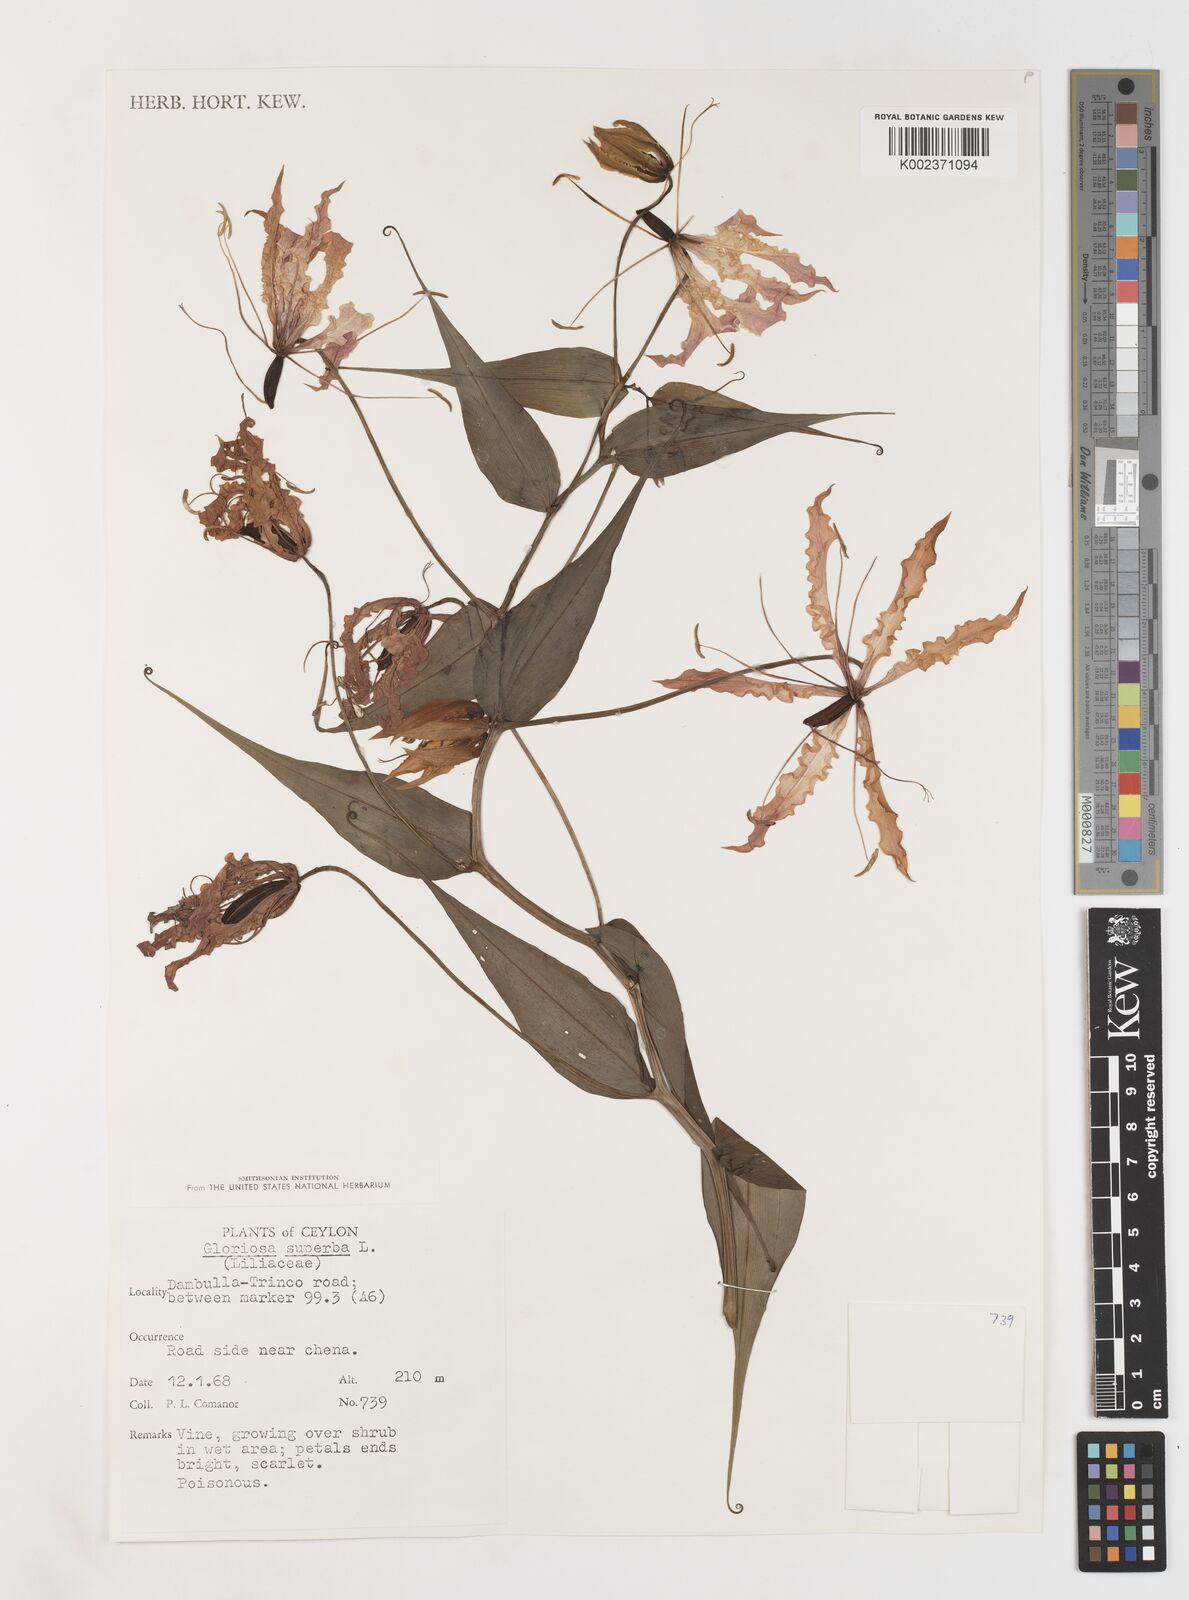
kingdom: Plantae
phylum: Tracheophyta
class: Liliopsida
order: Liliales
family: Colchicaceae
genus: Gloriosa
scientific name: Gloriosa superba
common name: Flame lily
